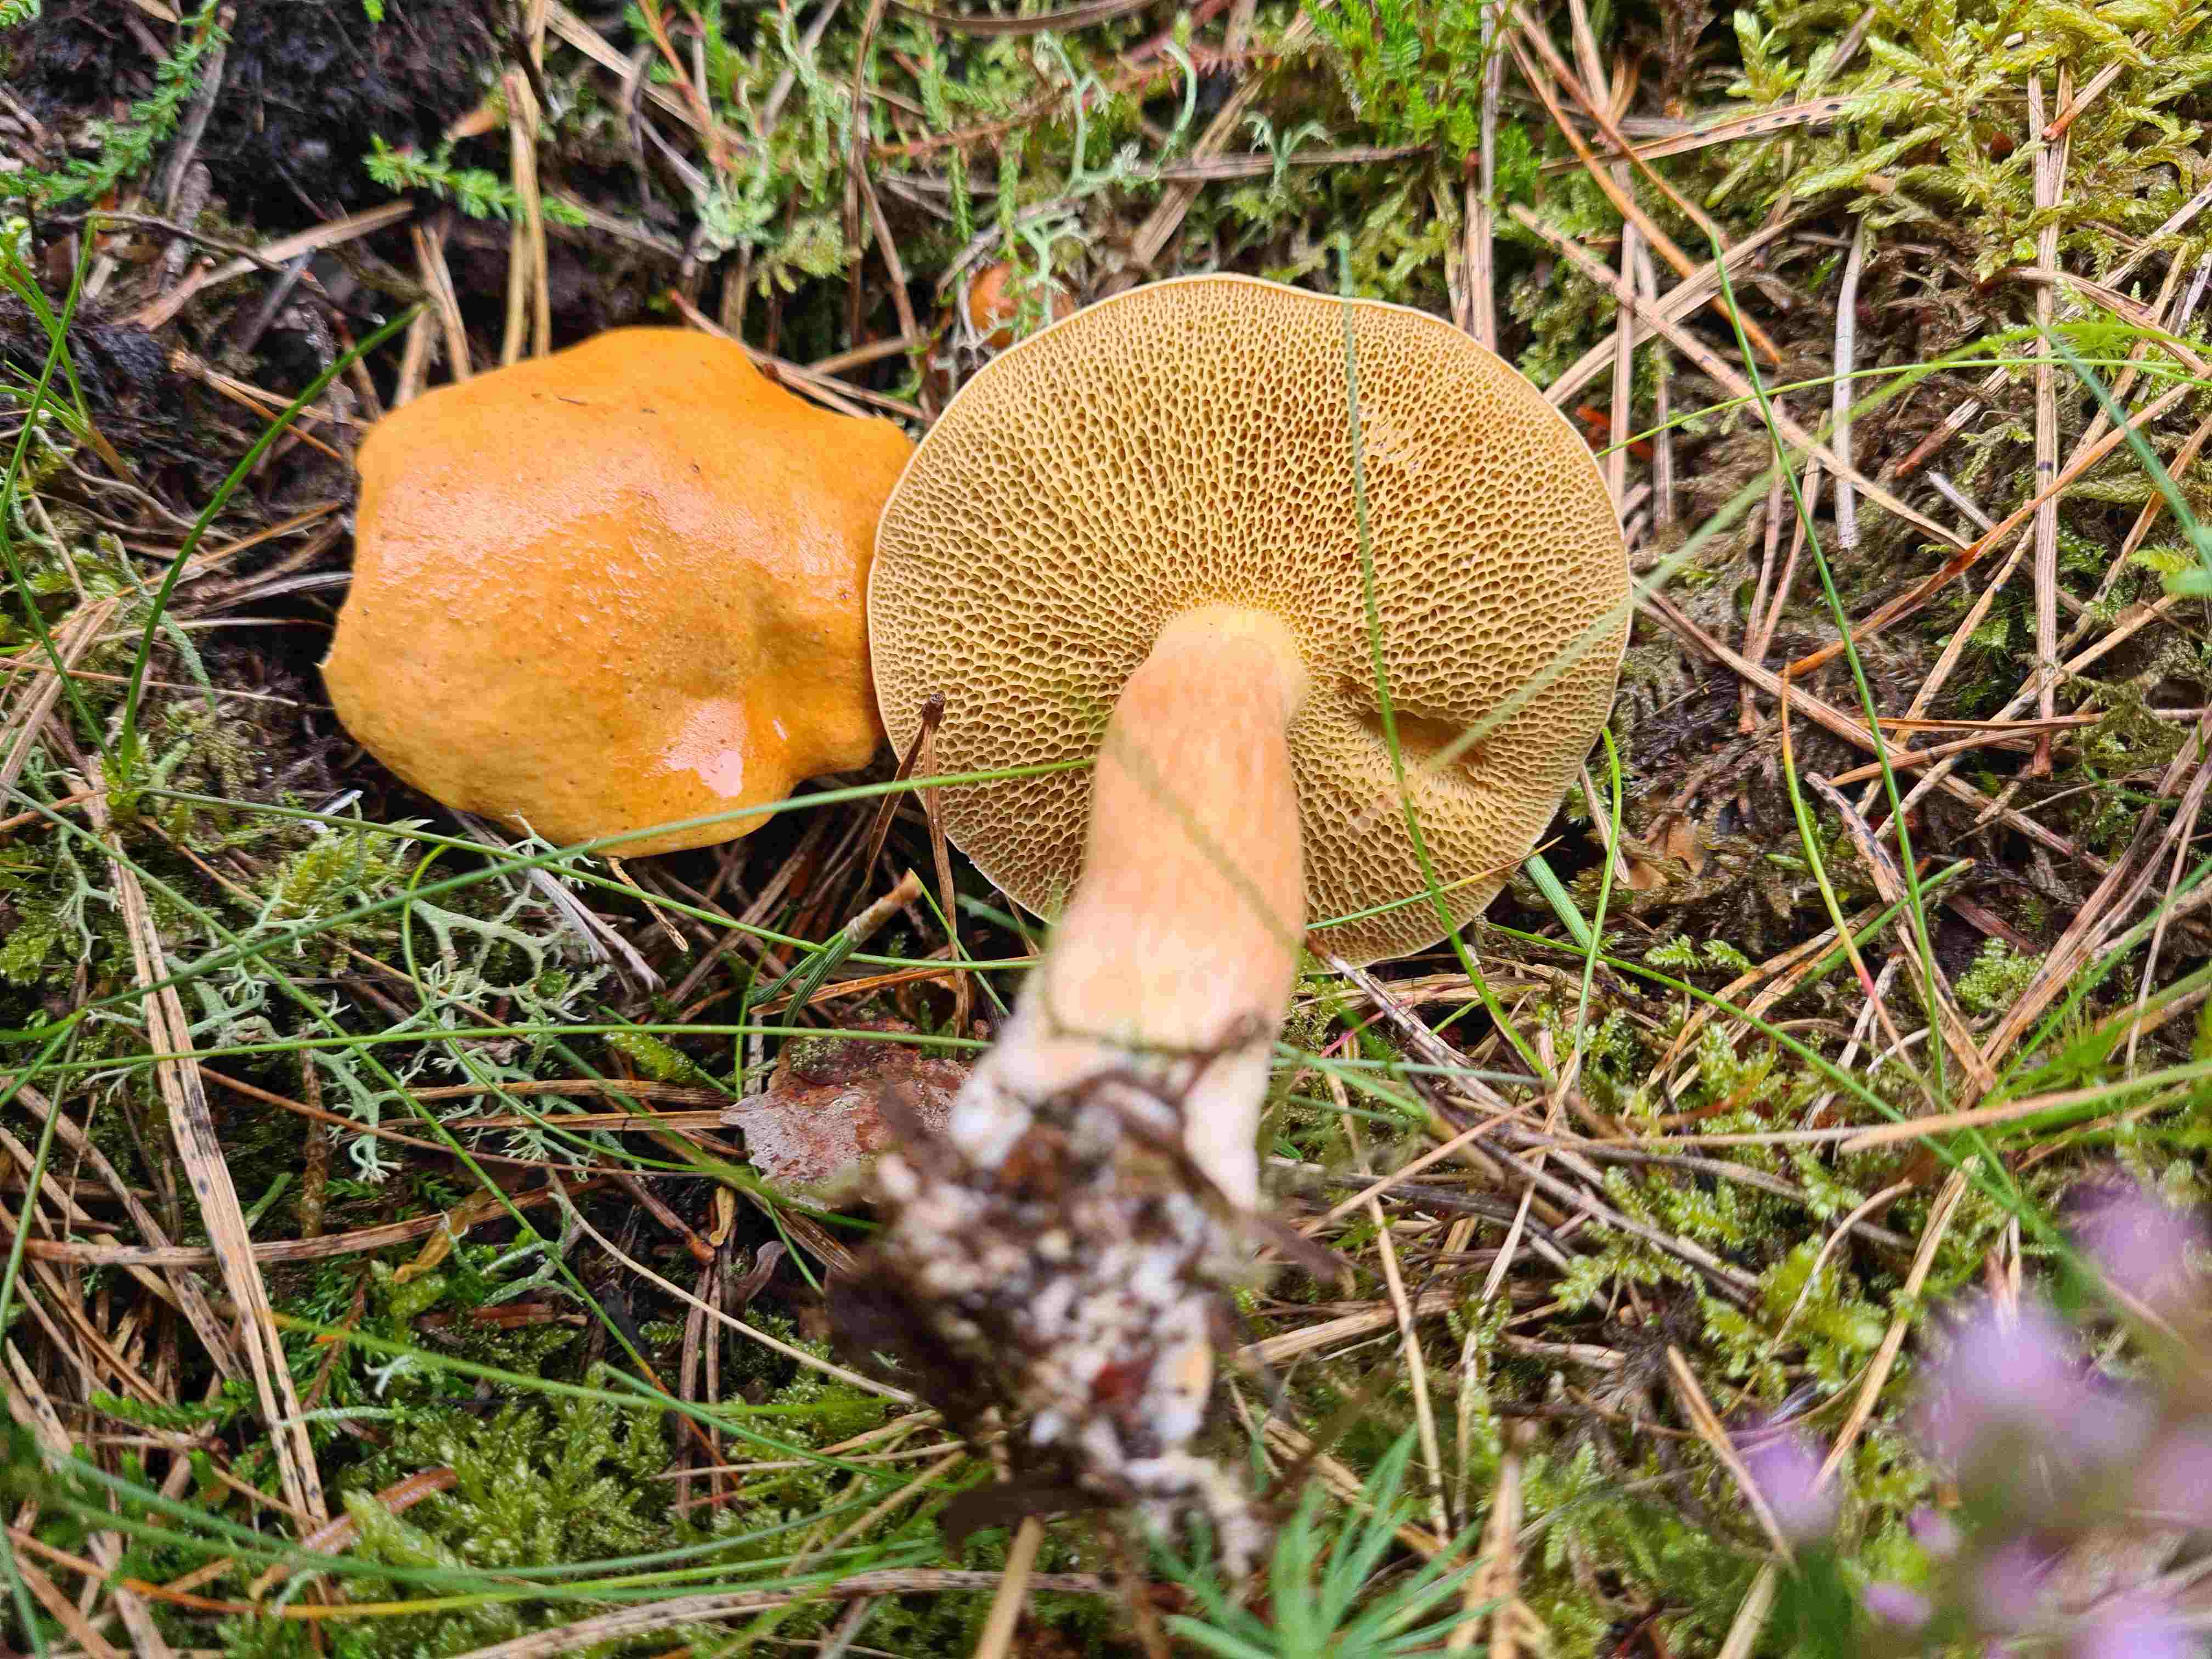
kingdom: Fungi
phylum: Basidiomycota
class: Agaricomycetes
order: Boletales
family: Suillaceae
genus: Suillus
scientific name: Suillus bovinus
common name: grovporet slimrørhat
